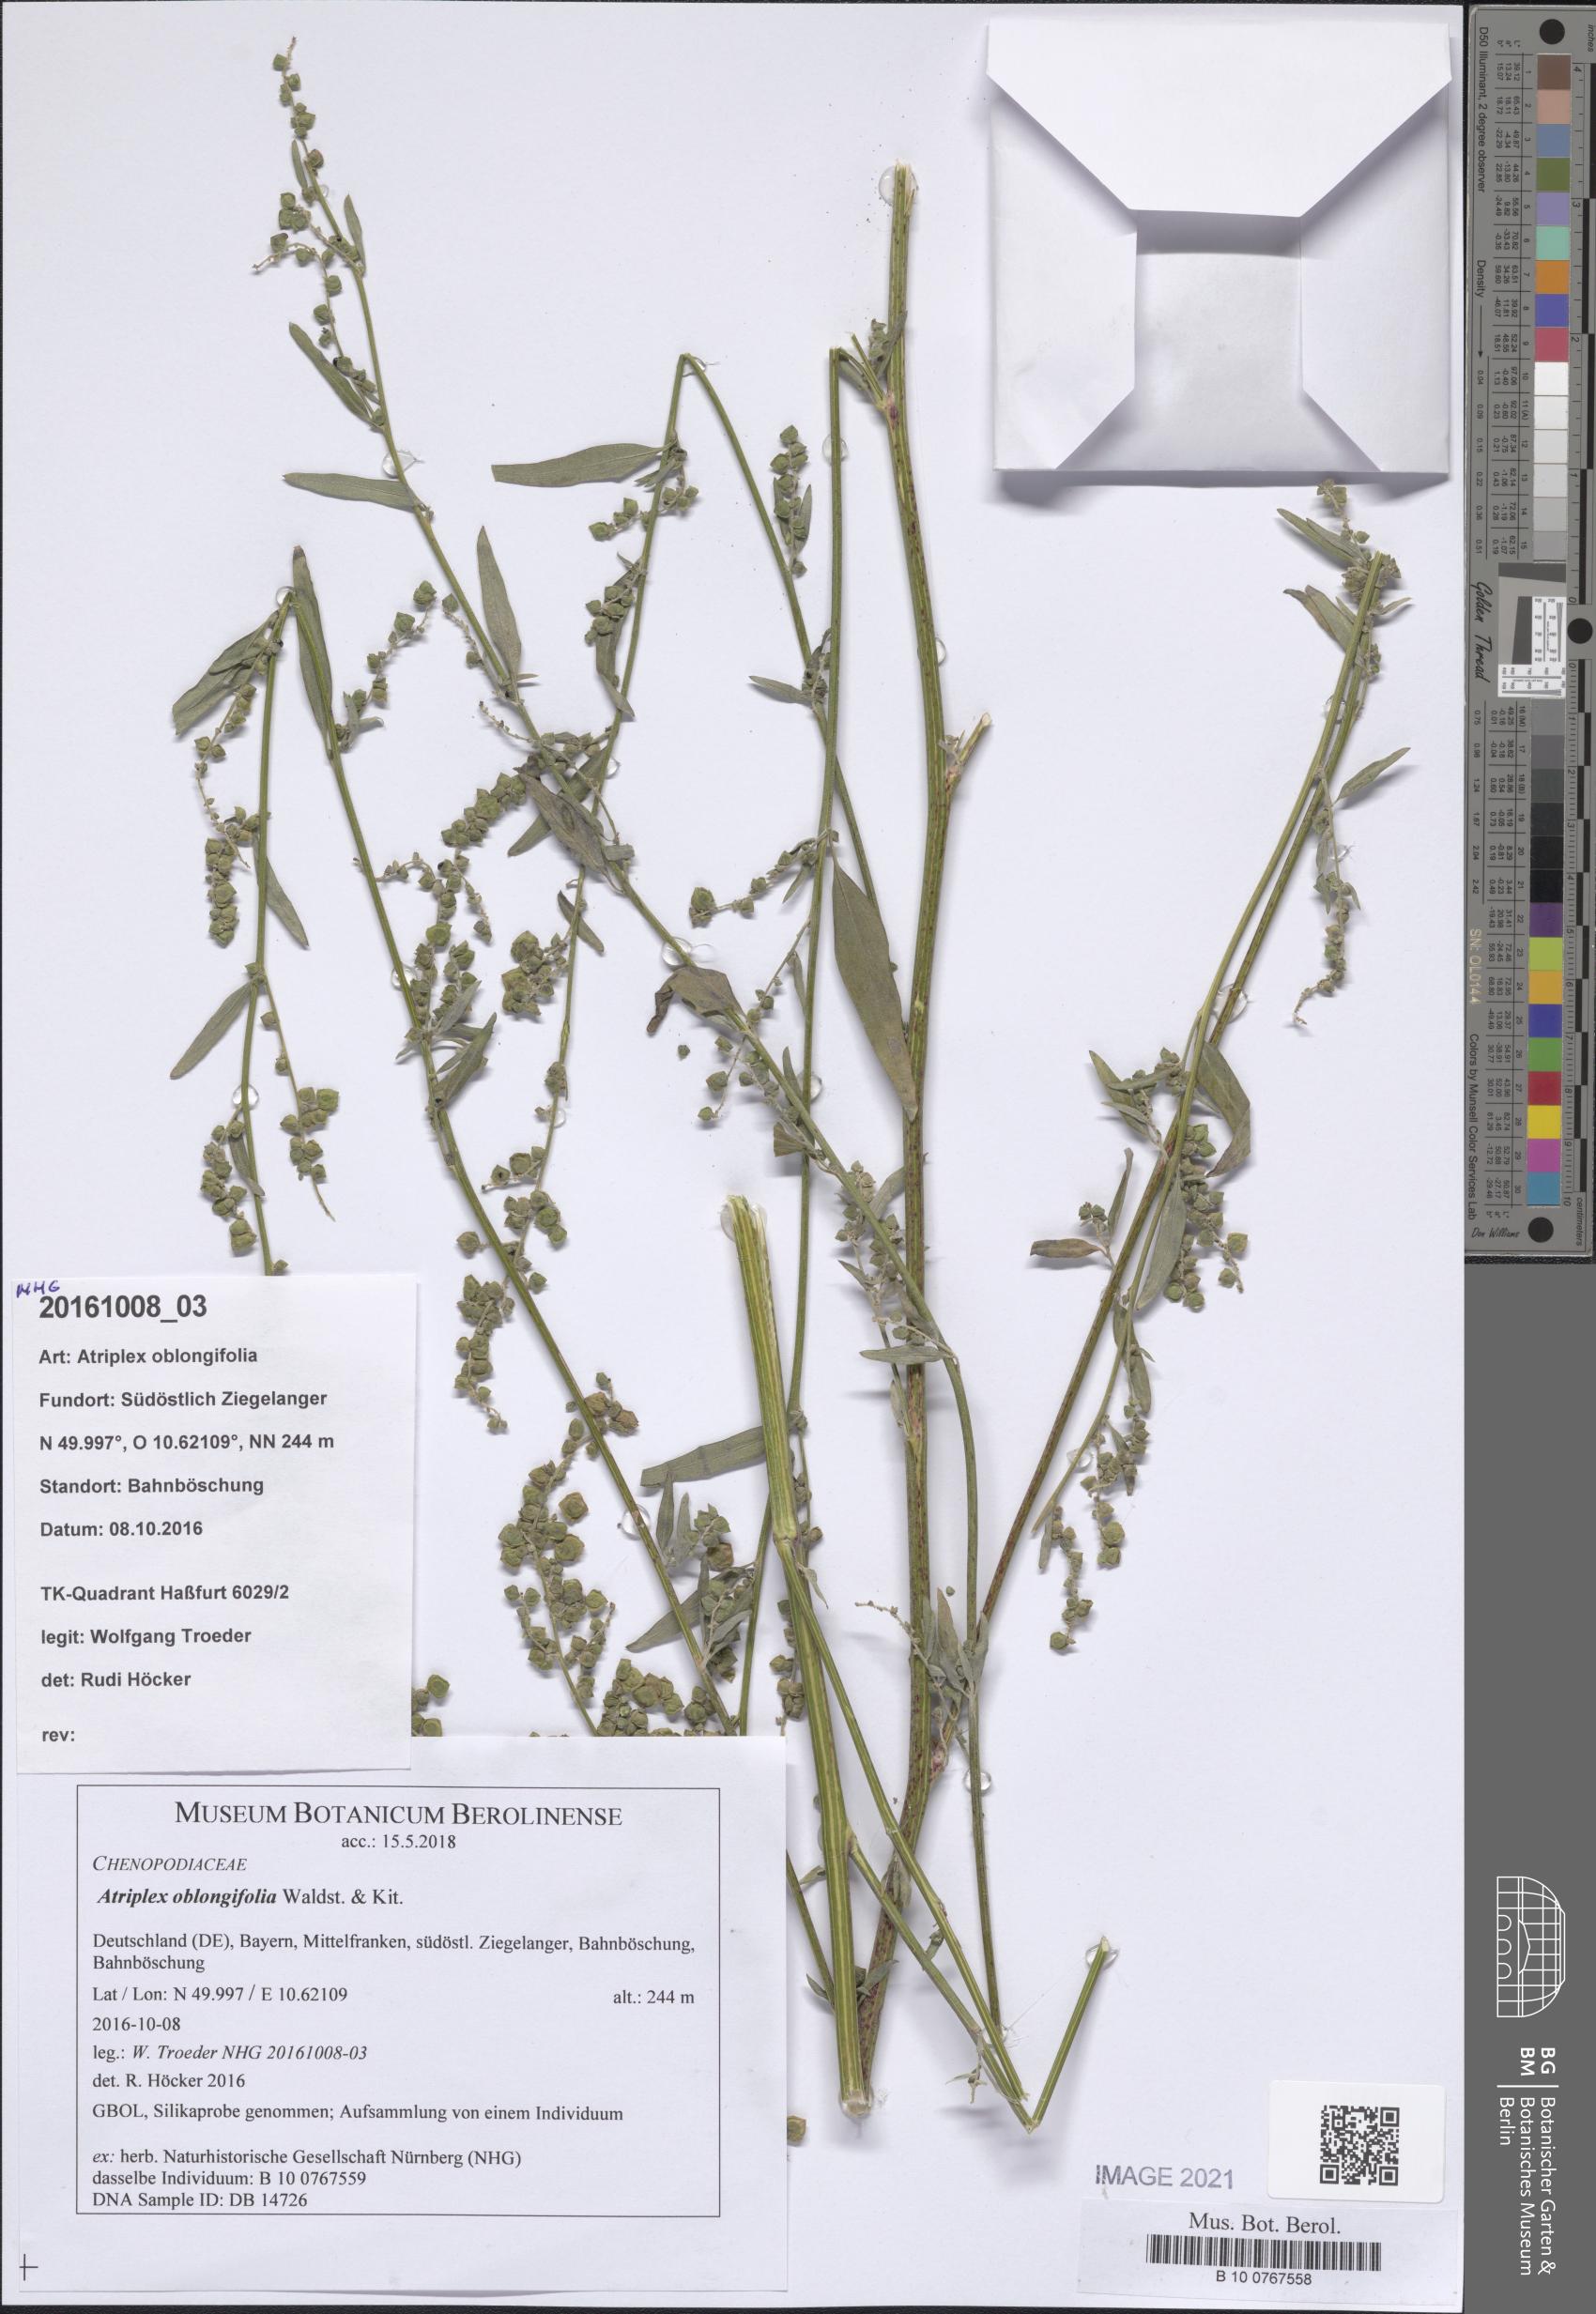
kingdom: Plantae
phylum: Tracheophyta
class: Magnoliopsida
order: Caryophyllales
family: Amaranthaceae
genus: Atriplex
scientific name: Atriplex oblongifolia
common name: Oblongleaf orache
